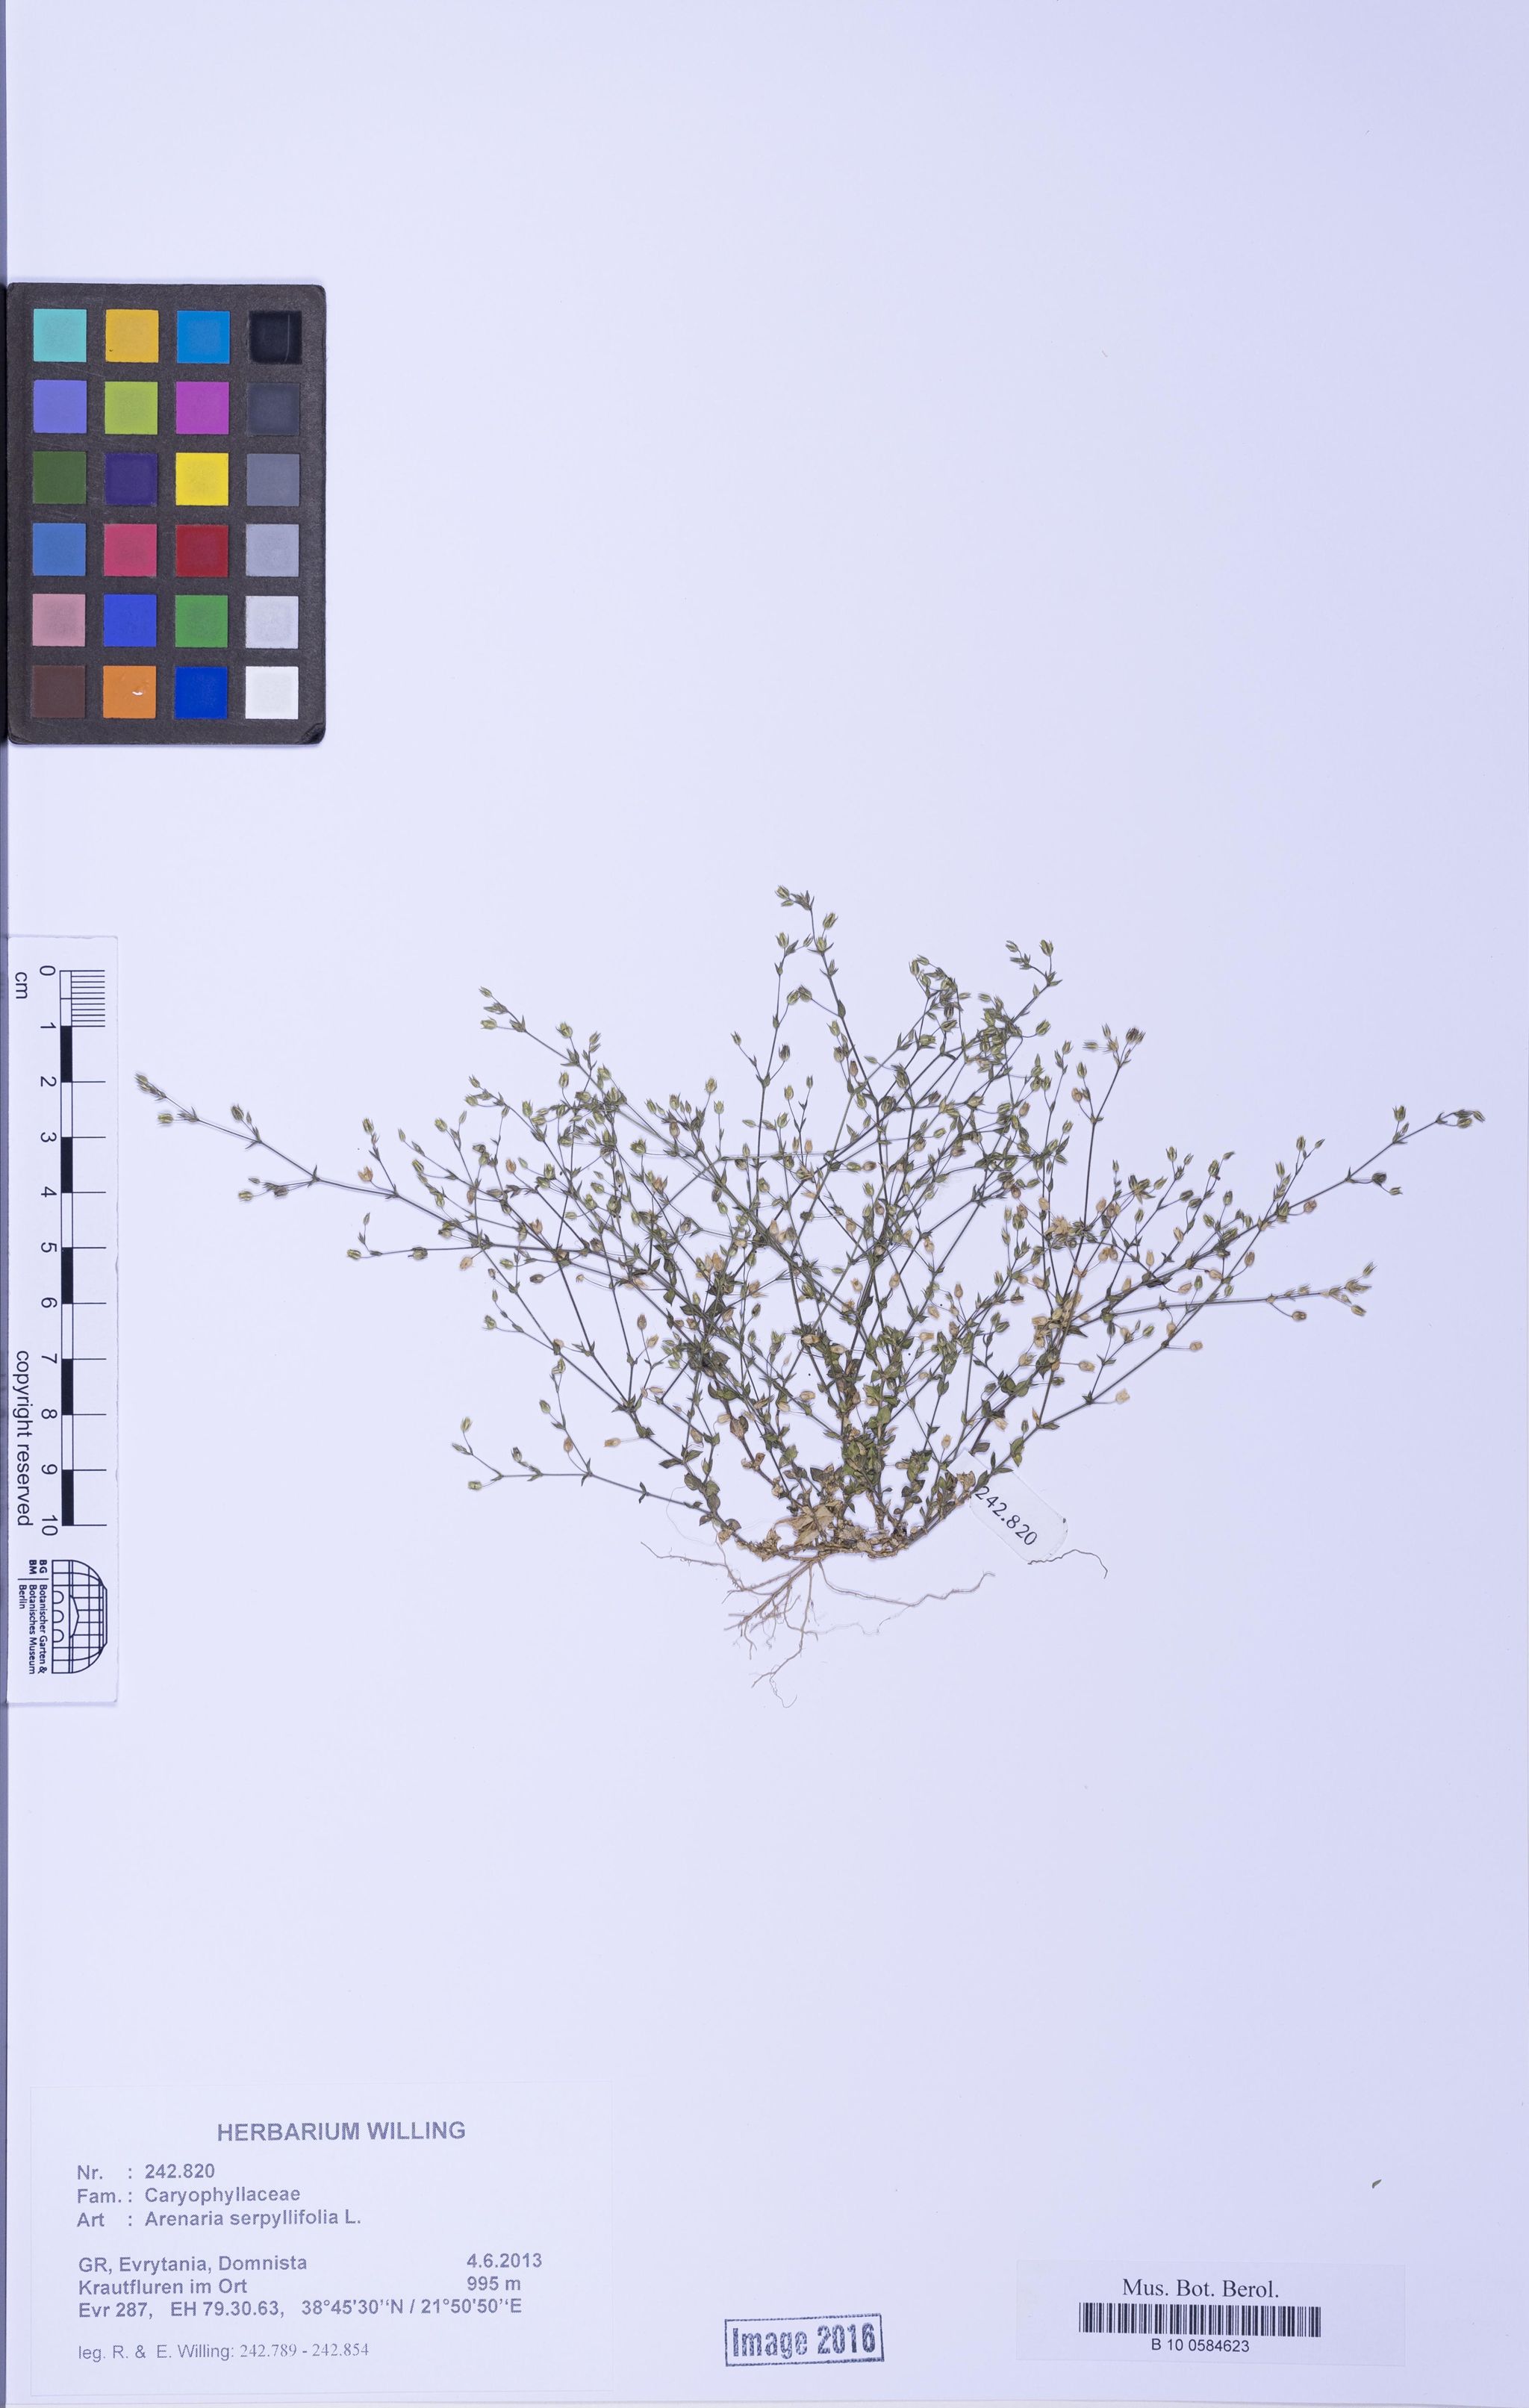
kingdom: Plantae
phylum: Tracheophyta
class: Magnoliopsida
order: Caryophyllales
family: Caryophyllaceae
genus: Arenaria
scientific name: Arenaria serpyllifolia
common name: Thyme-leaved sandwort
